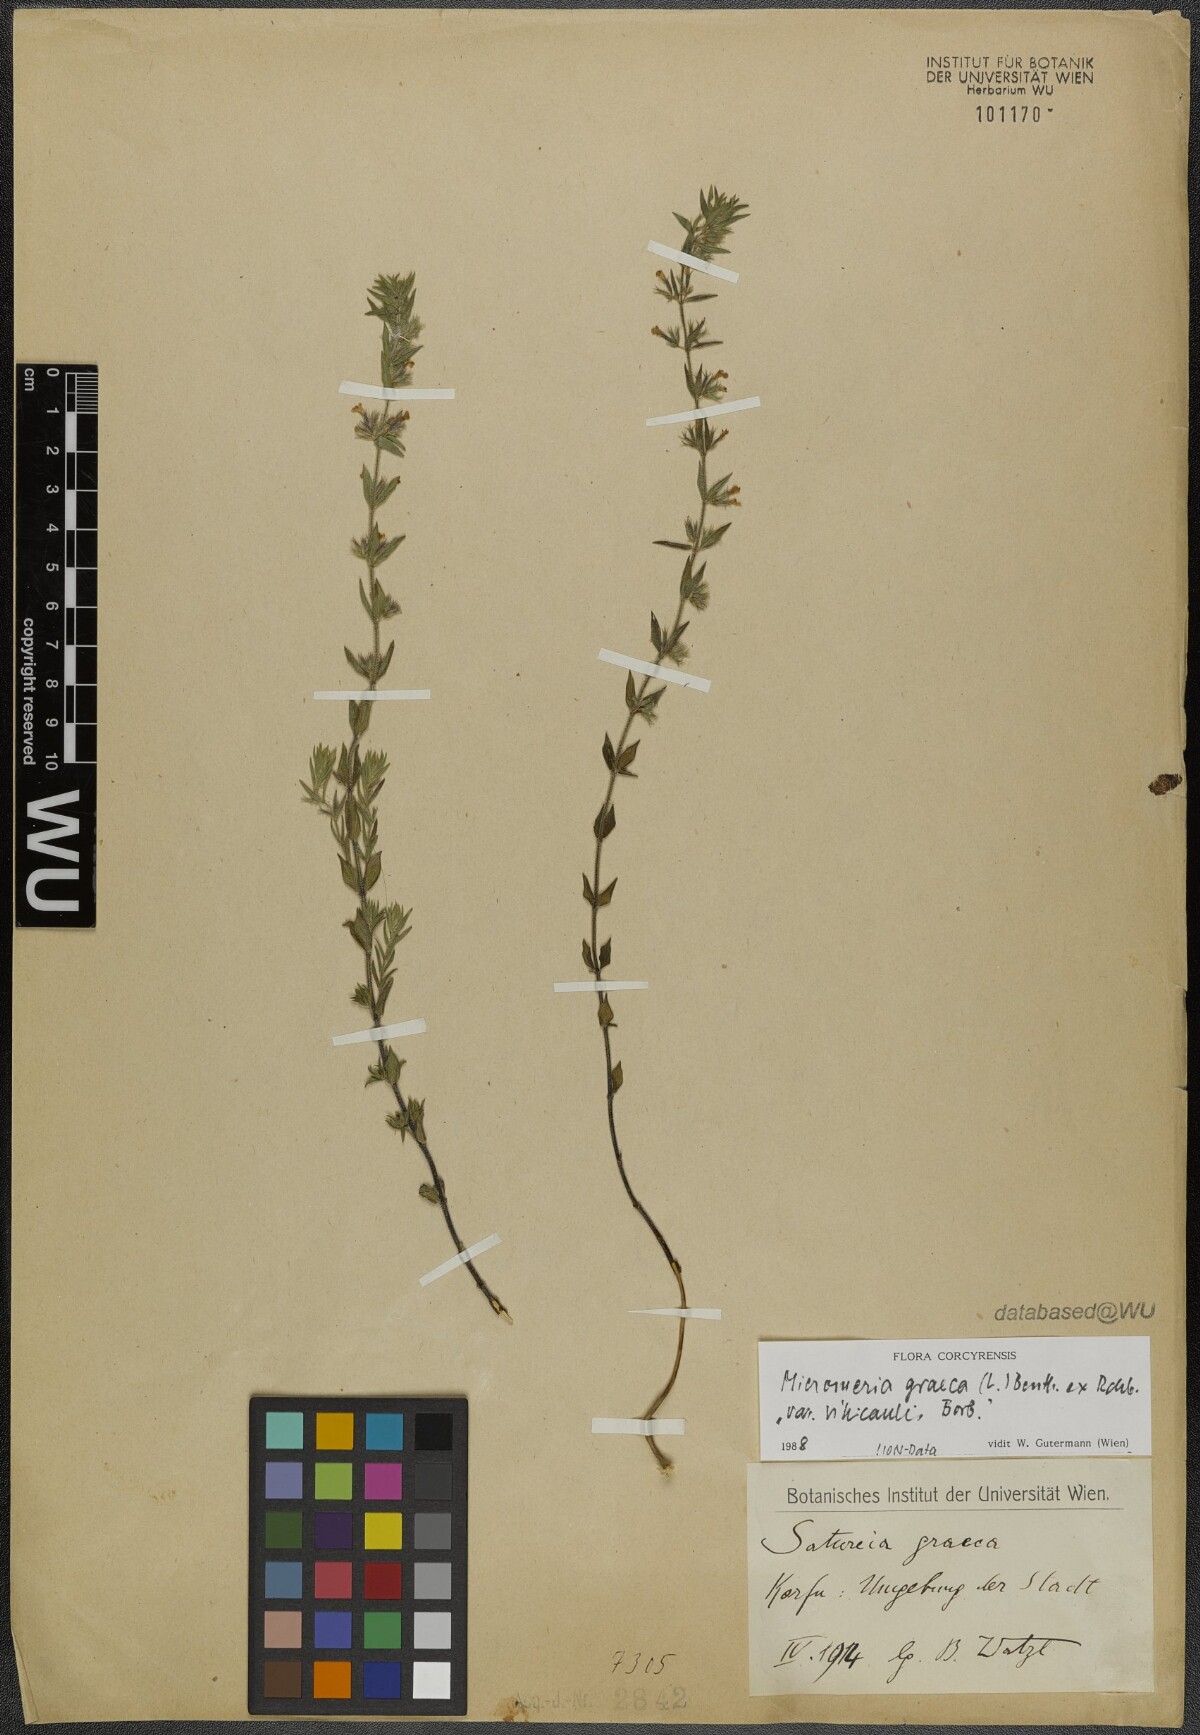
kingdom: Plantae
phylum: Tracheophyta
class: Magnoliopsida
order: Lamiales
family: Lamiaceae
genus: Micromeria
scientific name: Micromeria graeca
